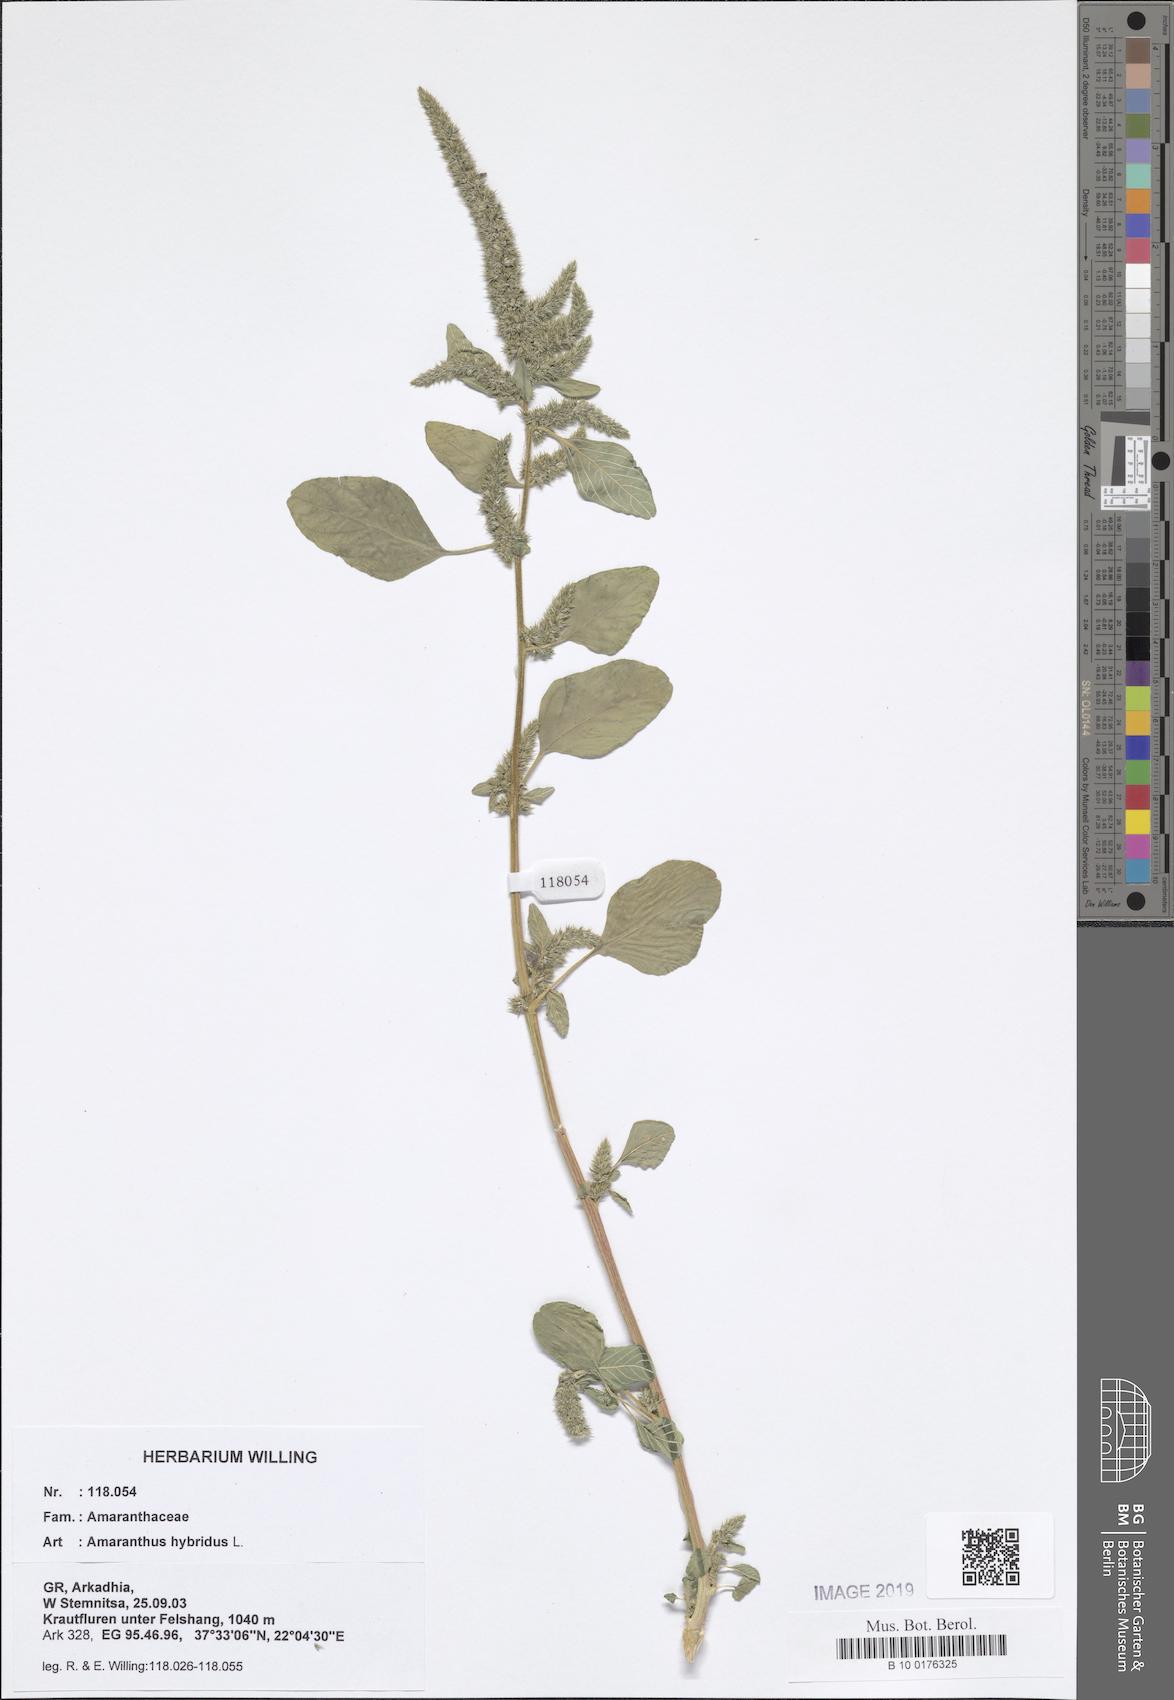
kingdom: Plantae
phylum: Tracheophyta
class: Magnoliopsida
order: Caryophyllales
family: Amaranthaceae
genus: Amaranthus
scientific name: Amaranthus hybridus
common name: Green amaranth
